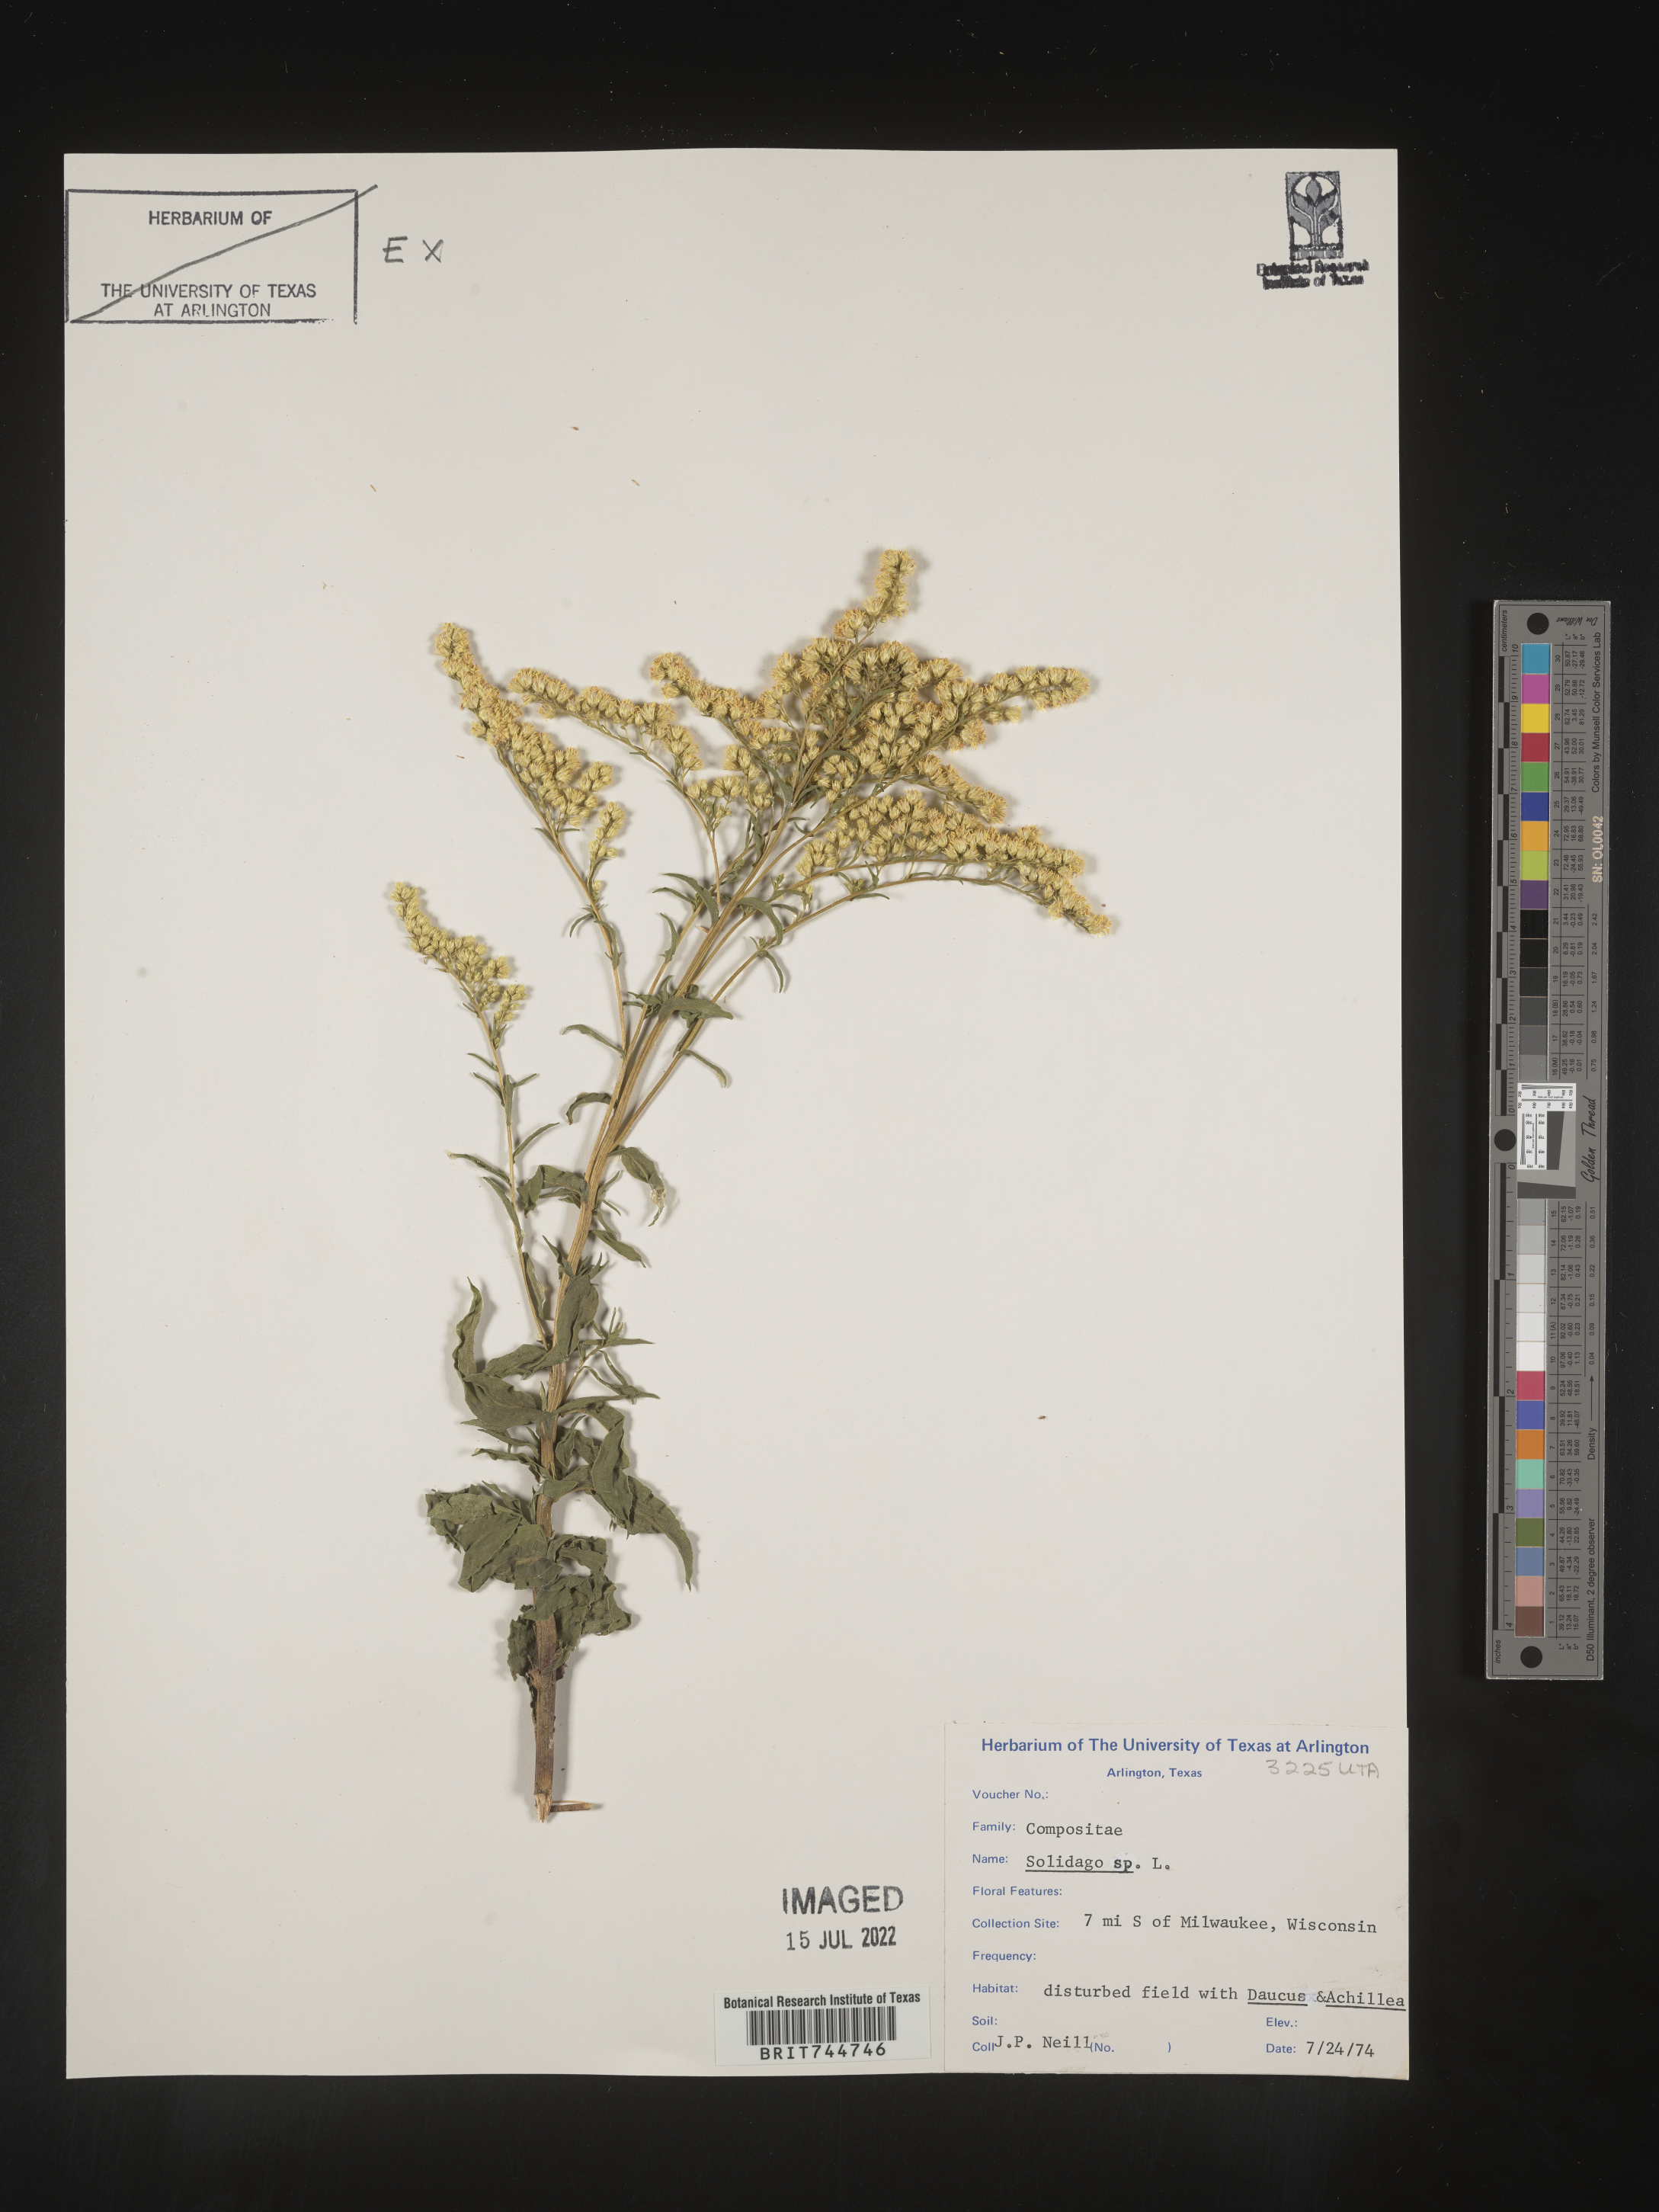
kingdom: Plantae
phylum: Tracheophyta
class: Magnoliopsida
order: Asterales
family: Asteraceae
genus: Solidago
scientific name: Solidago canadensis
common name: Canada goldenrod
